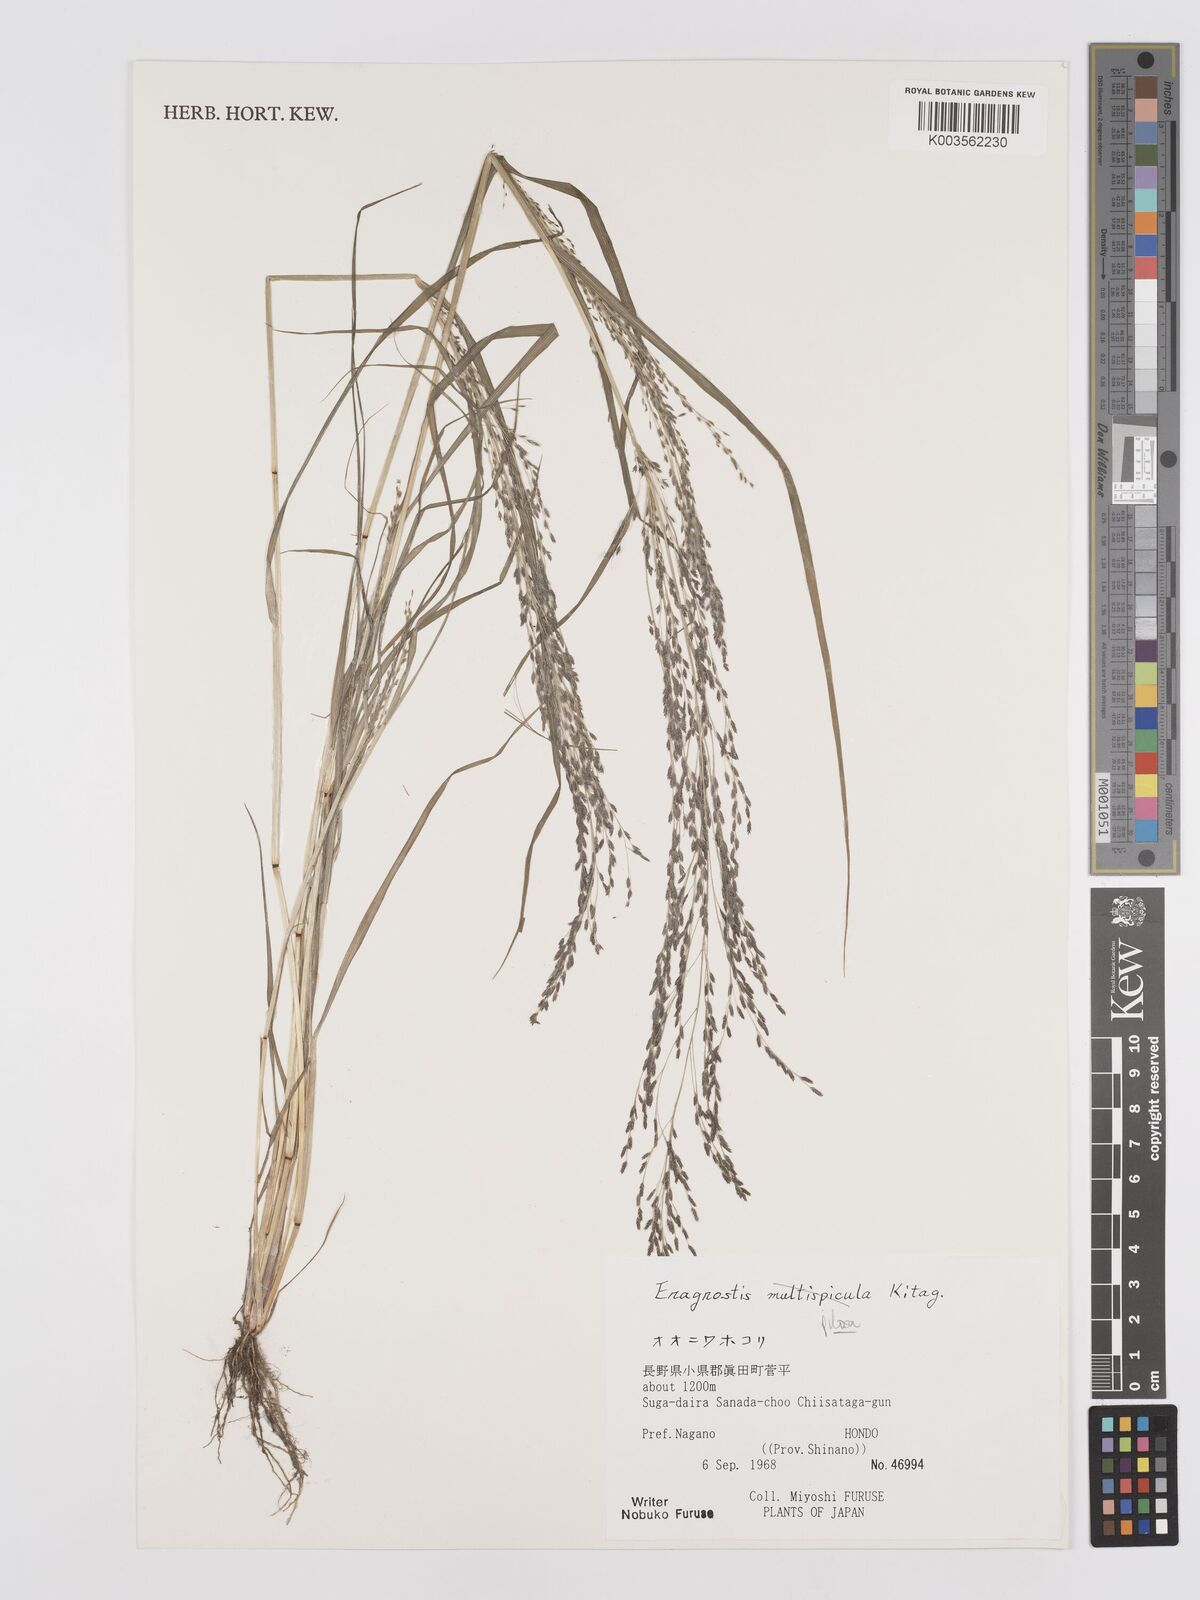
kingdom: Plantae
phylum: Tracheophyta
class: Liliopsida
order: Poales
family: Poaceae
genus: Eragrostis
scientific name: Eragrostis pilosa
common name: Indian lovegrass
